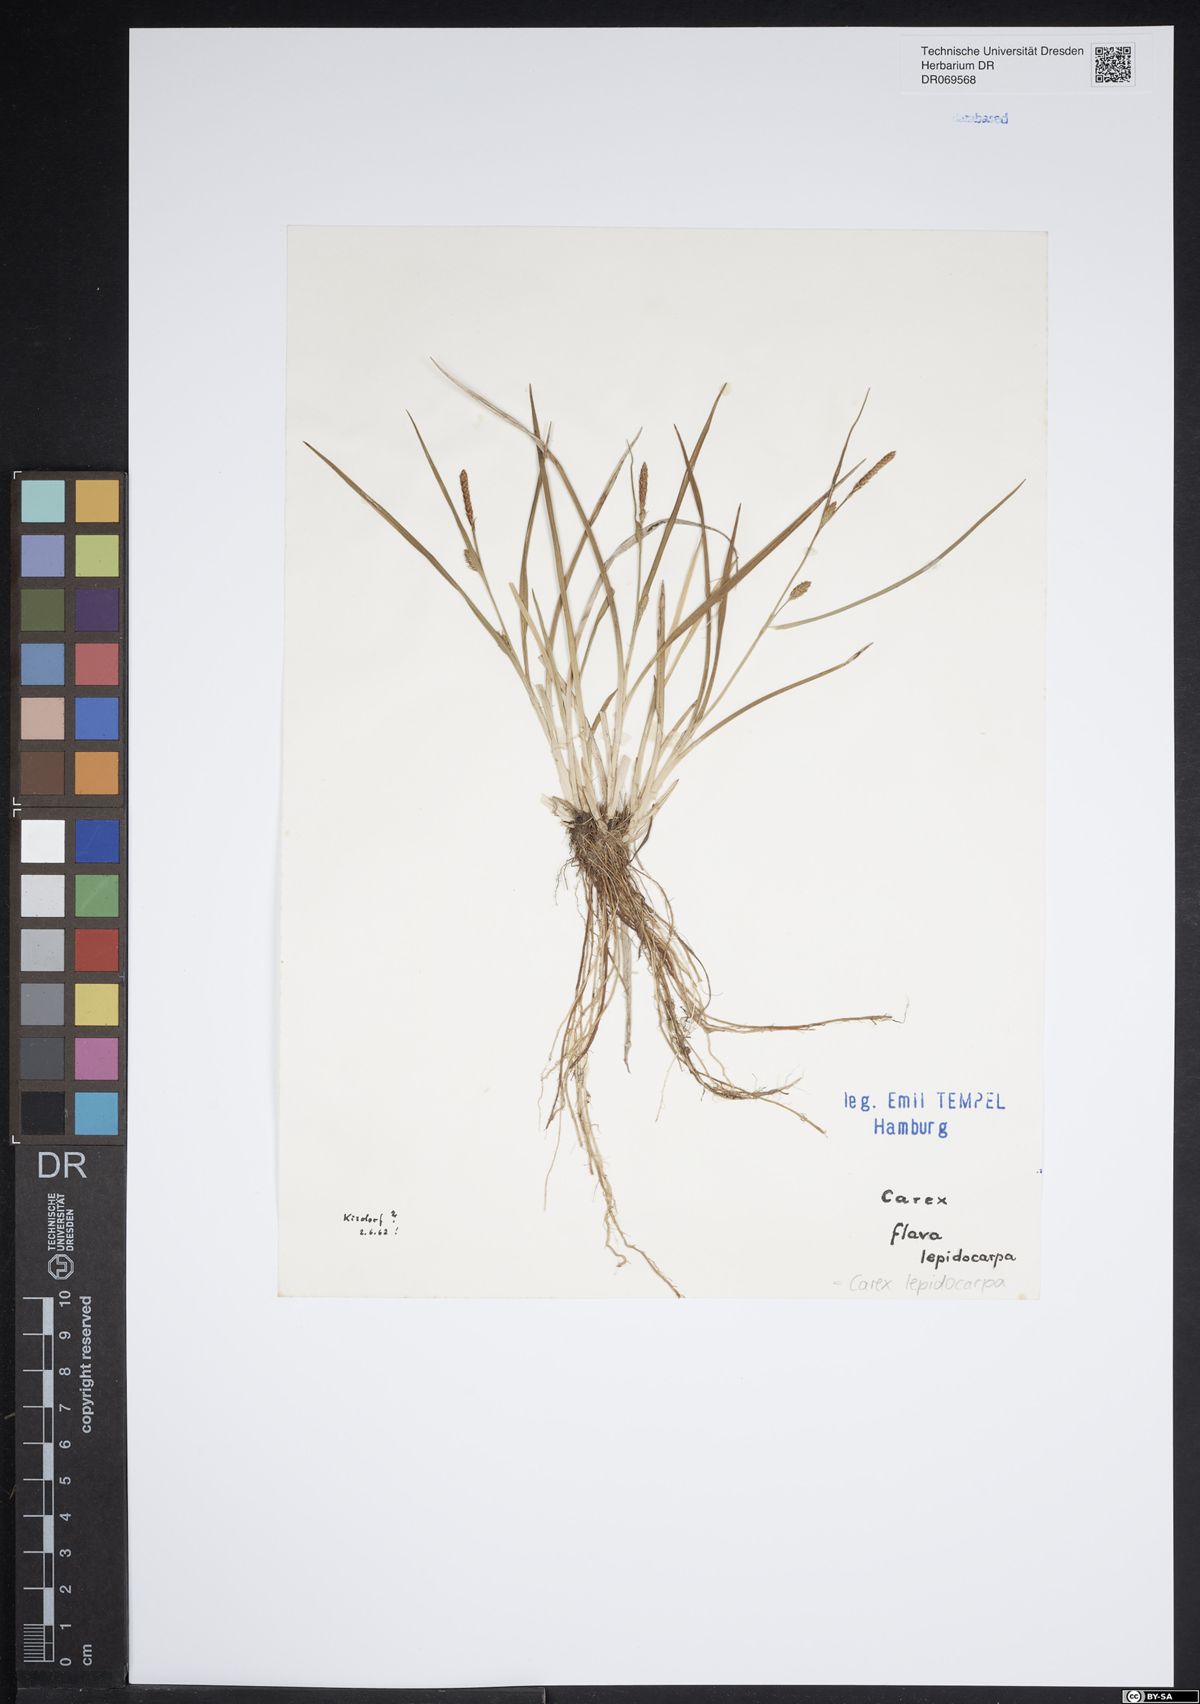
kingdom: Plantae
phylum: Tracheophyta
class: Liliopsida
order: Poales
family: Cyperaceae
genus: Carex
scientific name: Carex lepidocarpa
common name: Long-stalked yellow-sedge
